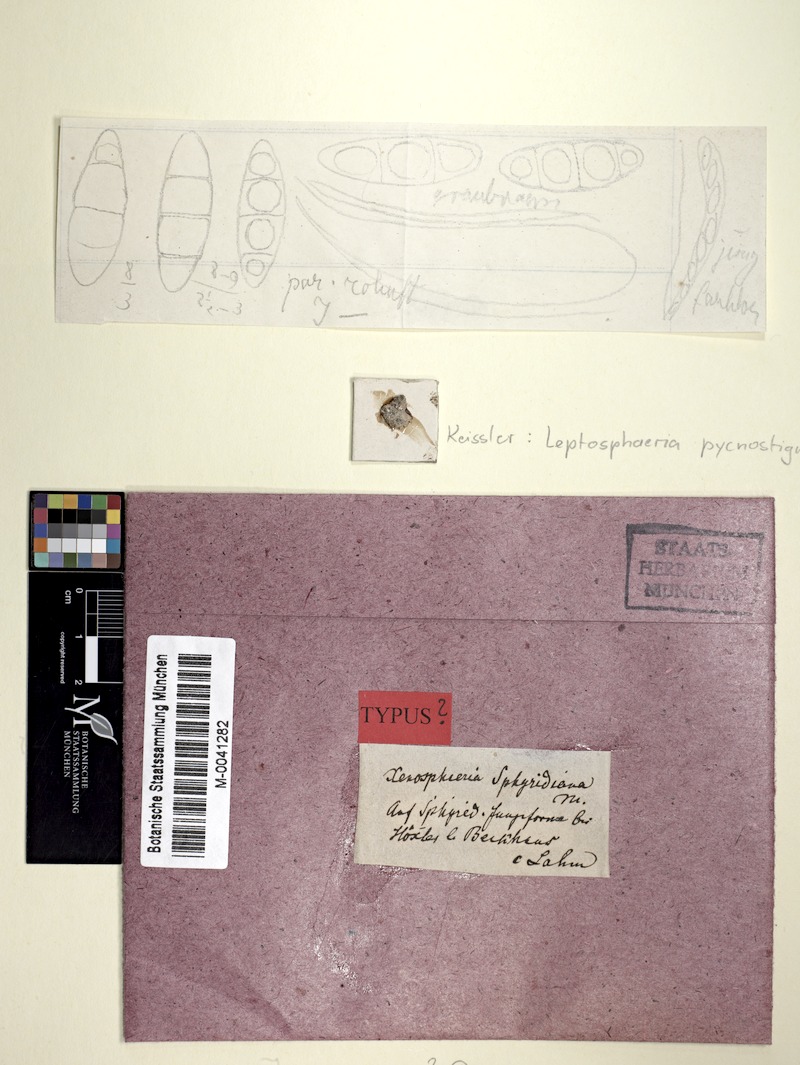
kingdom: Fungi
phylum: Ascomycota
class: Dothideomycetes
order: Pleosporales
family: Dacampiaceae
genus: Dacampia
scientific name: Dacampia engeliana
